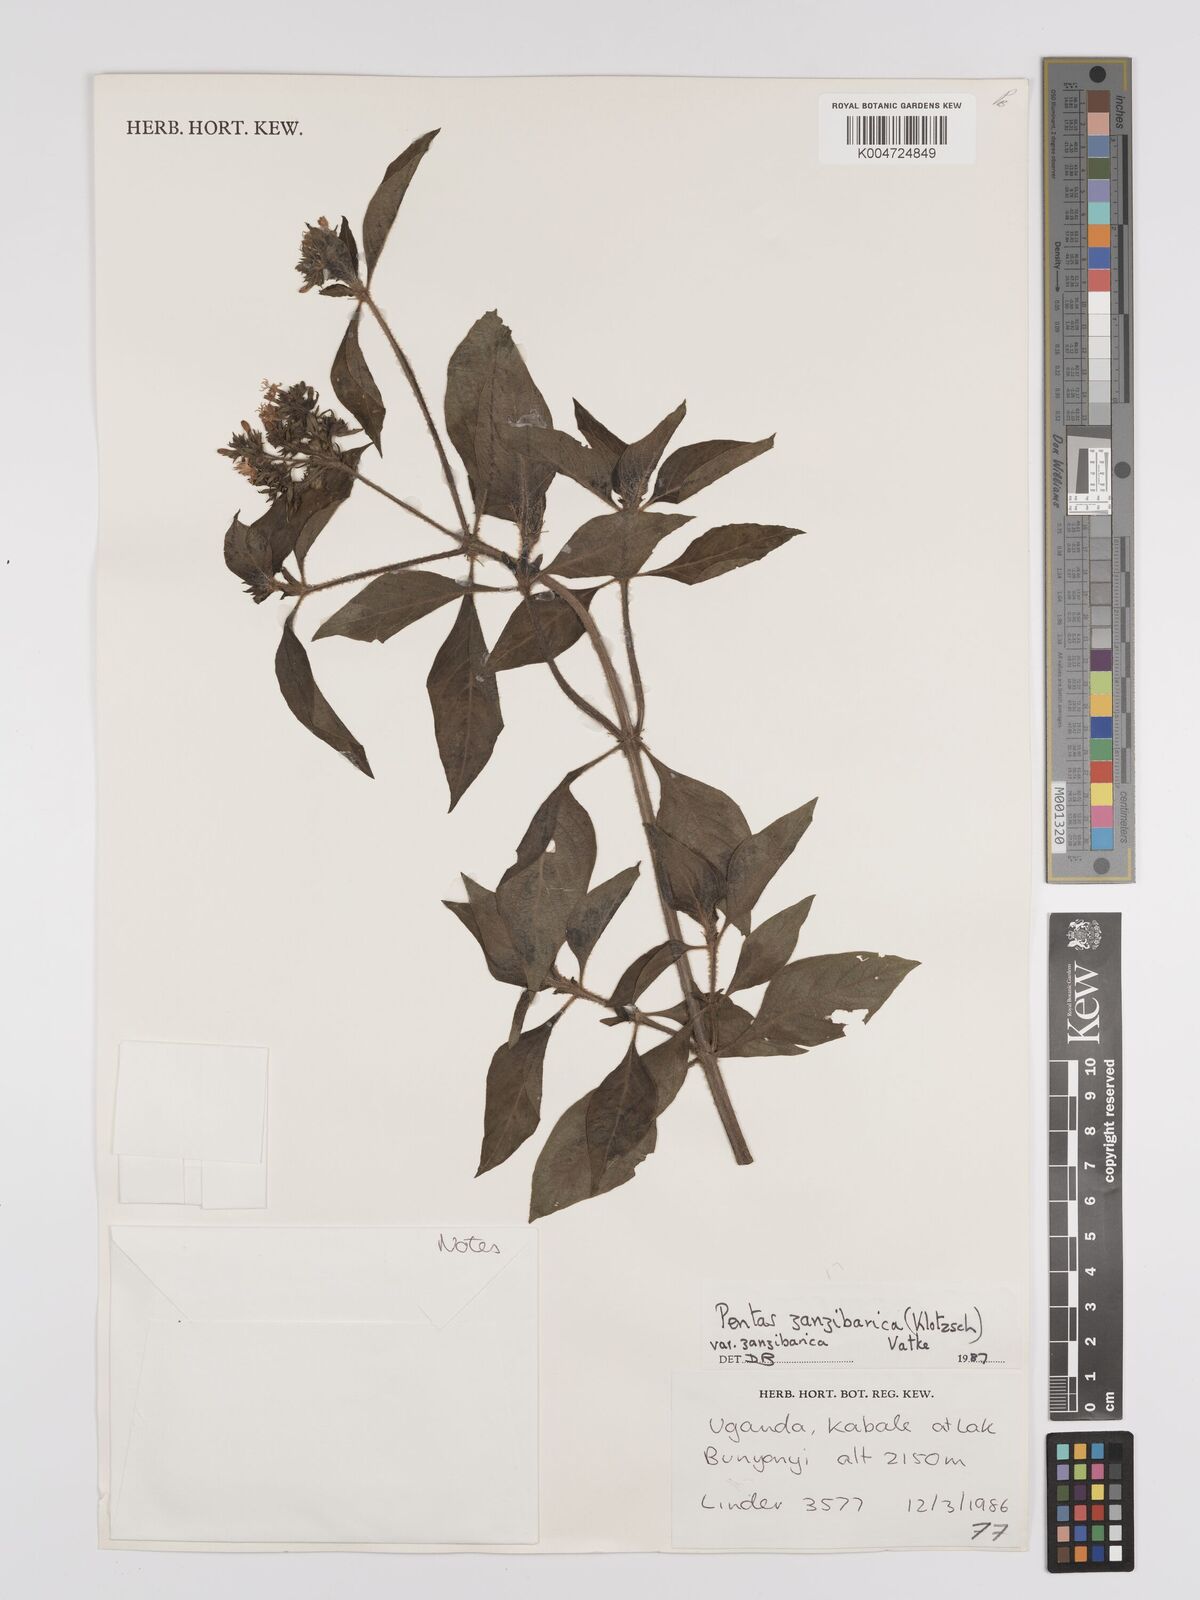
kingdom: Plantae
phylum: Tracheophyta
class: Magnoliopsida
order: Gentianales
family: Rubiaceae
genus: Pentas
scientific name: Pentas zanzibarica
